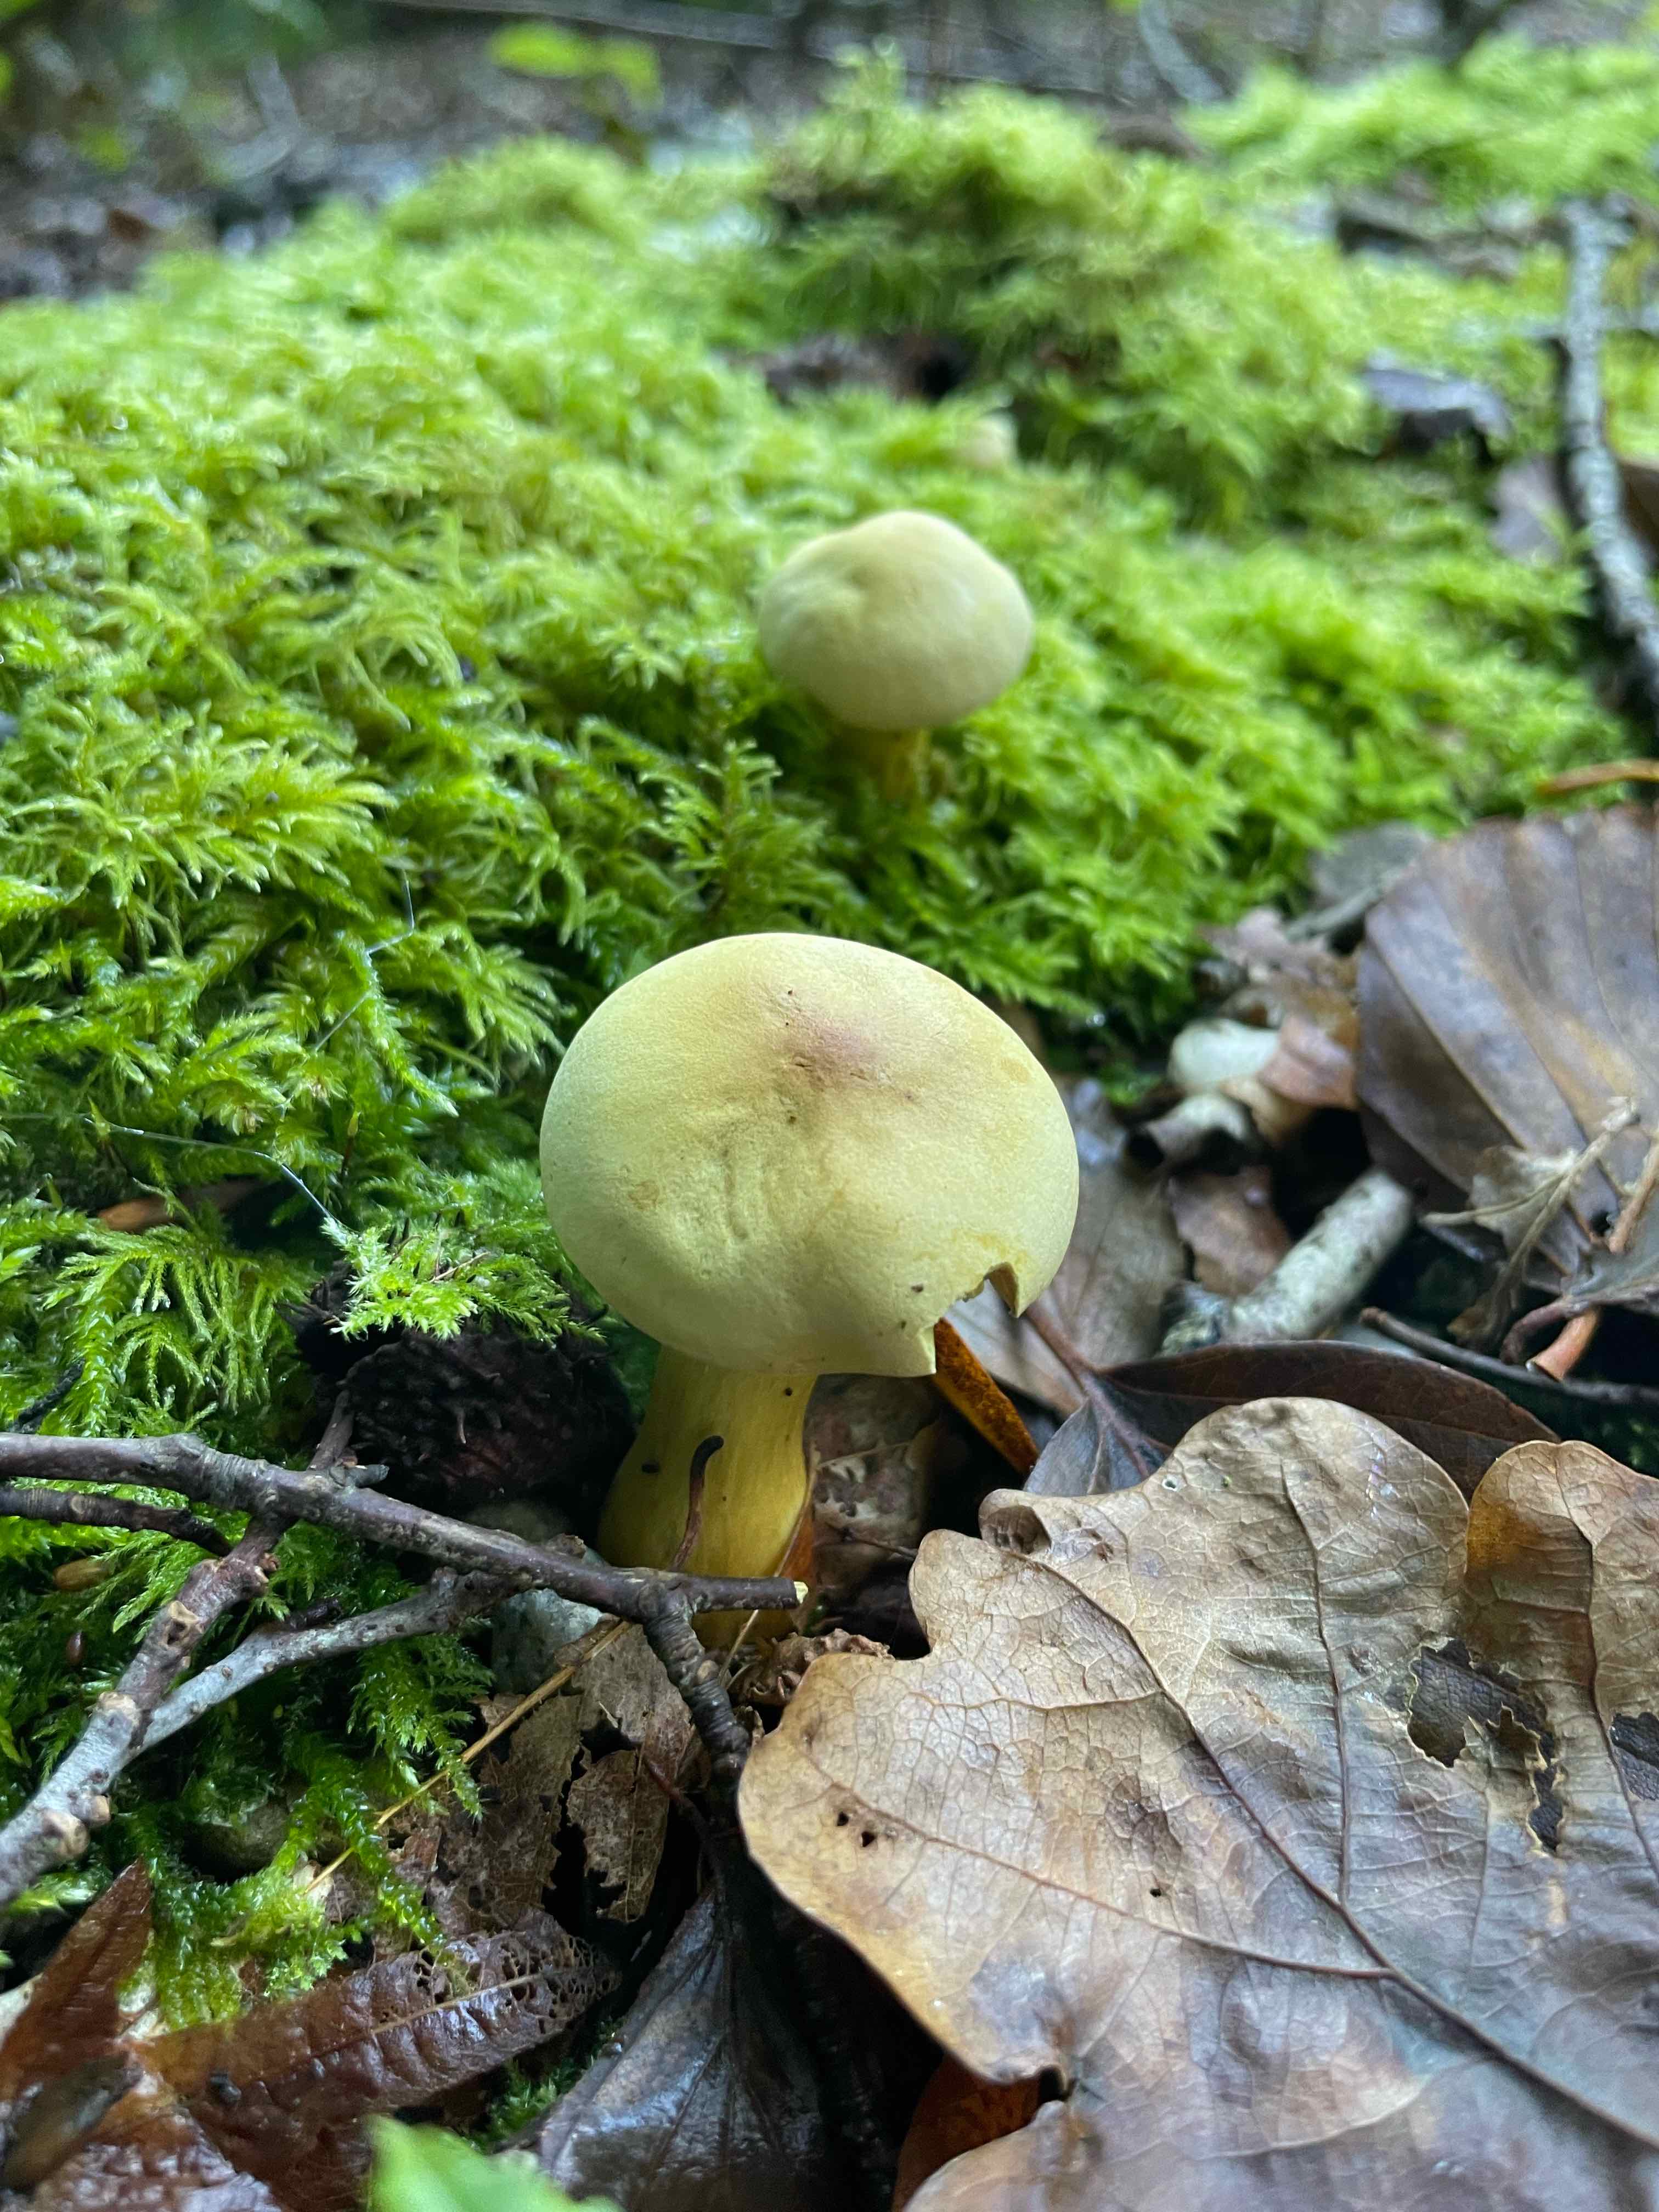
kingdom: Fungi
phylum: Basidiomycota
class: Agaricomycetes
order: Agaricales
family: Tricholomataceae
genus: Tricholoma
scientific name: Tricholoma sulphureum
